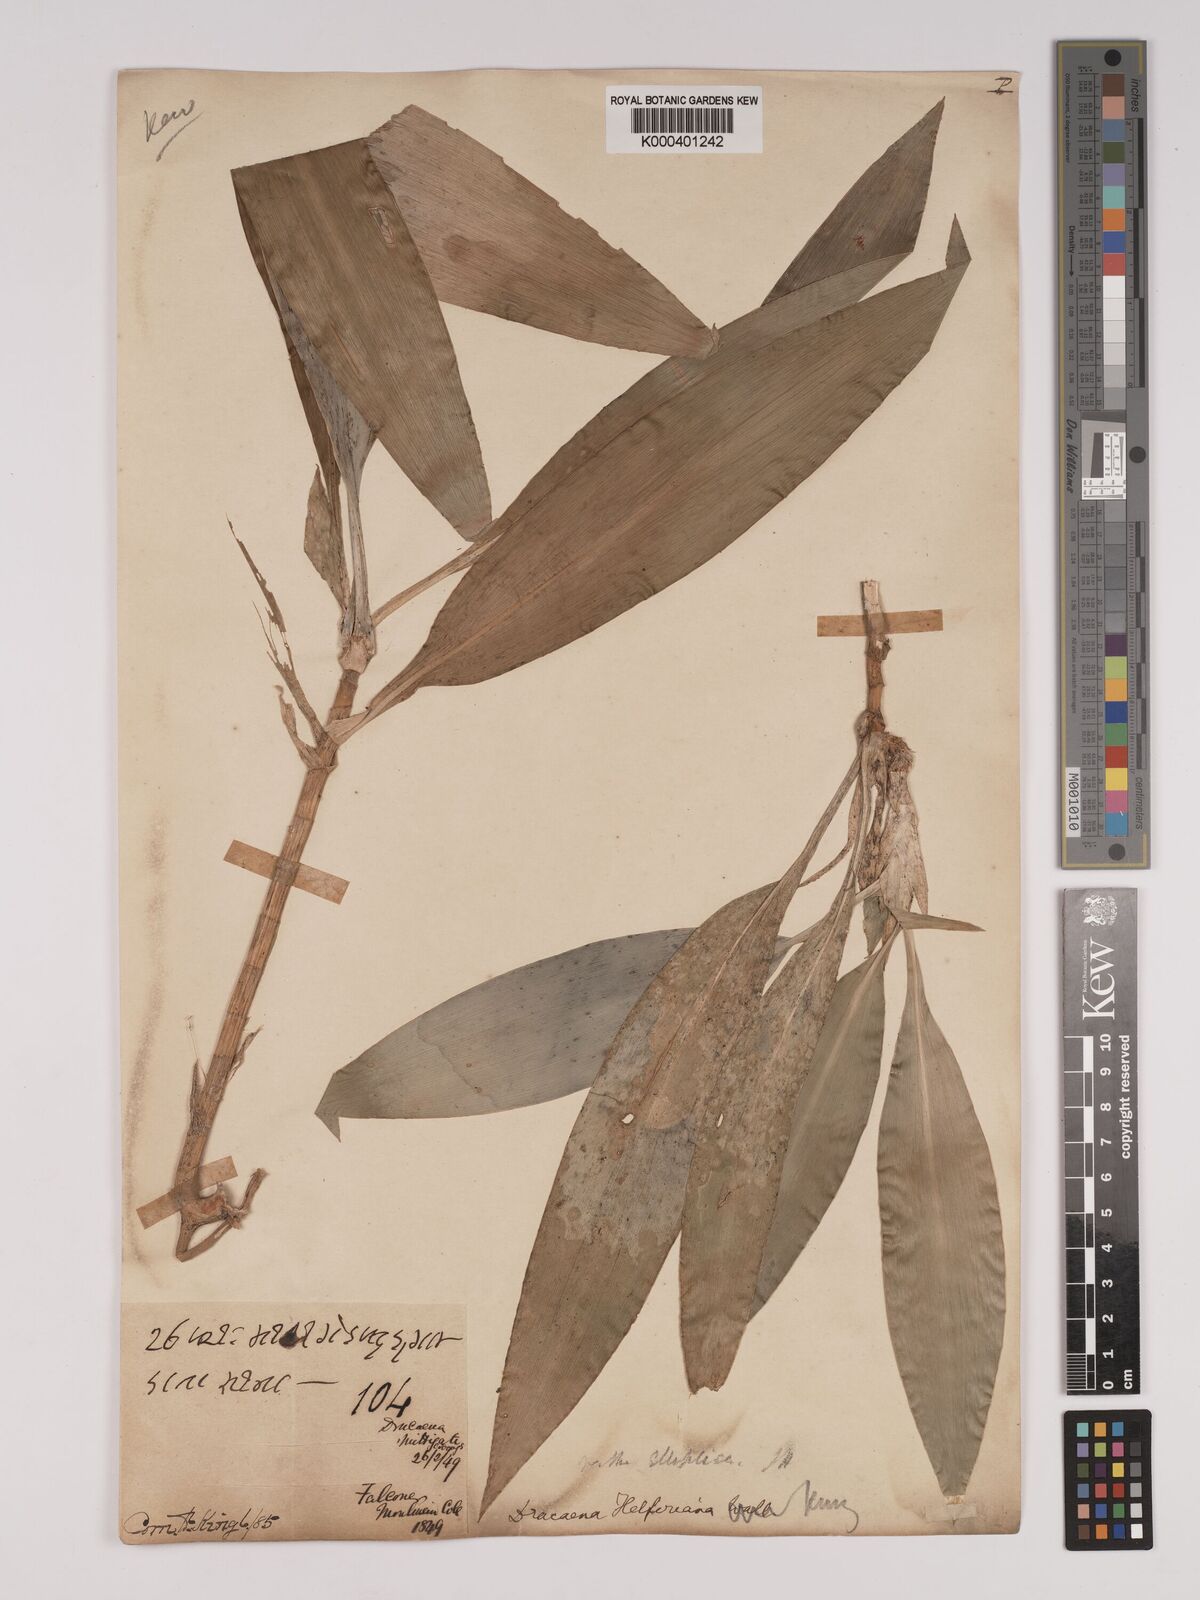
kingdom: Plantae
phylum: Tracheophyta
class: Liliopsida
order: Asparagales
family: Asparagaceae
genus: Dracaena
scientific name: Dracaena griffithii
